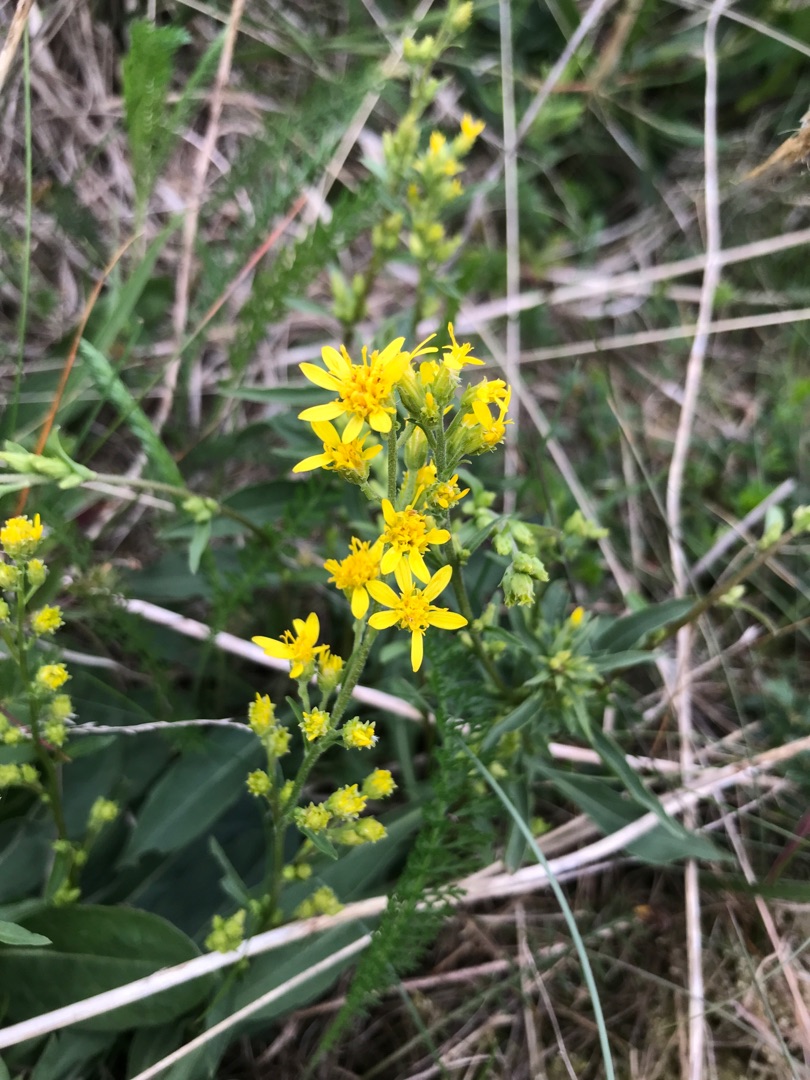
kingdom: Plantae
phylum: Tracheophyta
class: Magnoliopsida
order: Asterales
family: Asteraceae
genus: Solidago
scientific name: Solidago virgaurea
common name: Almindelig gyldenris
